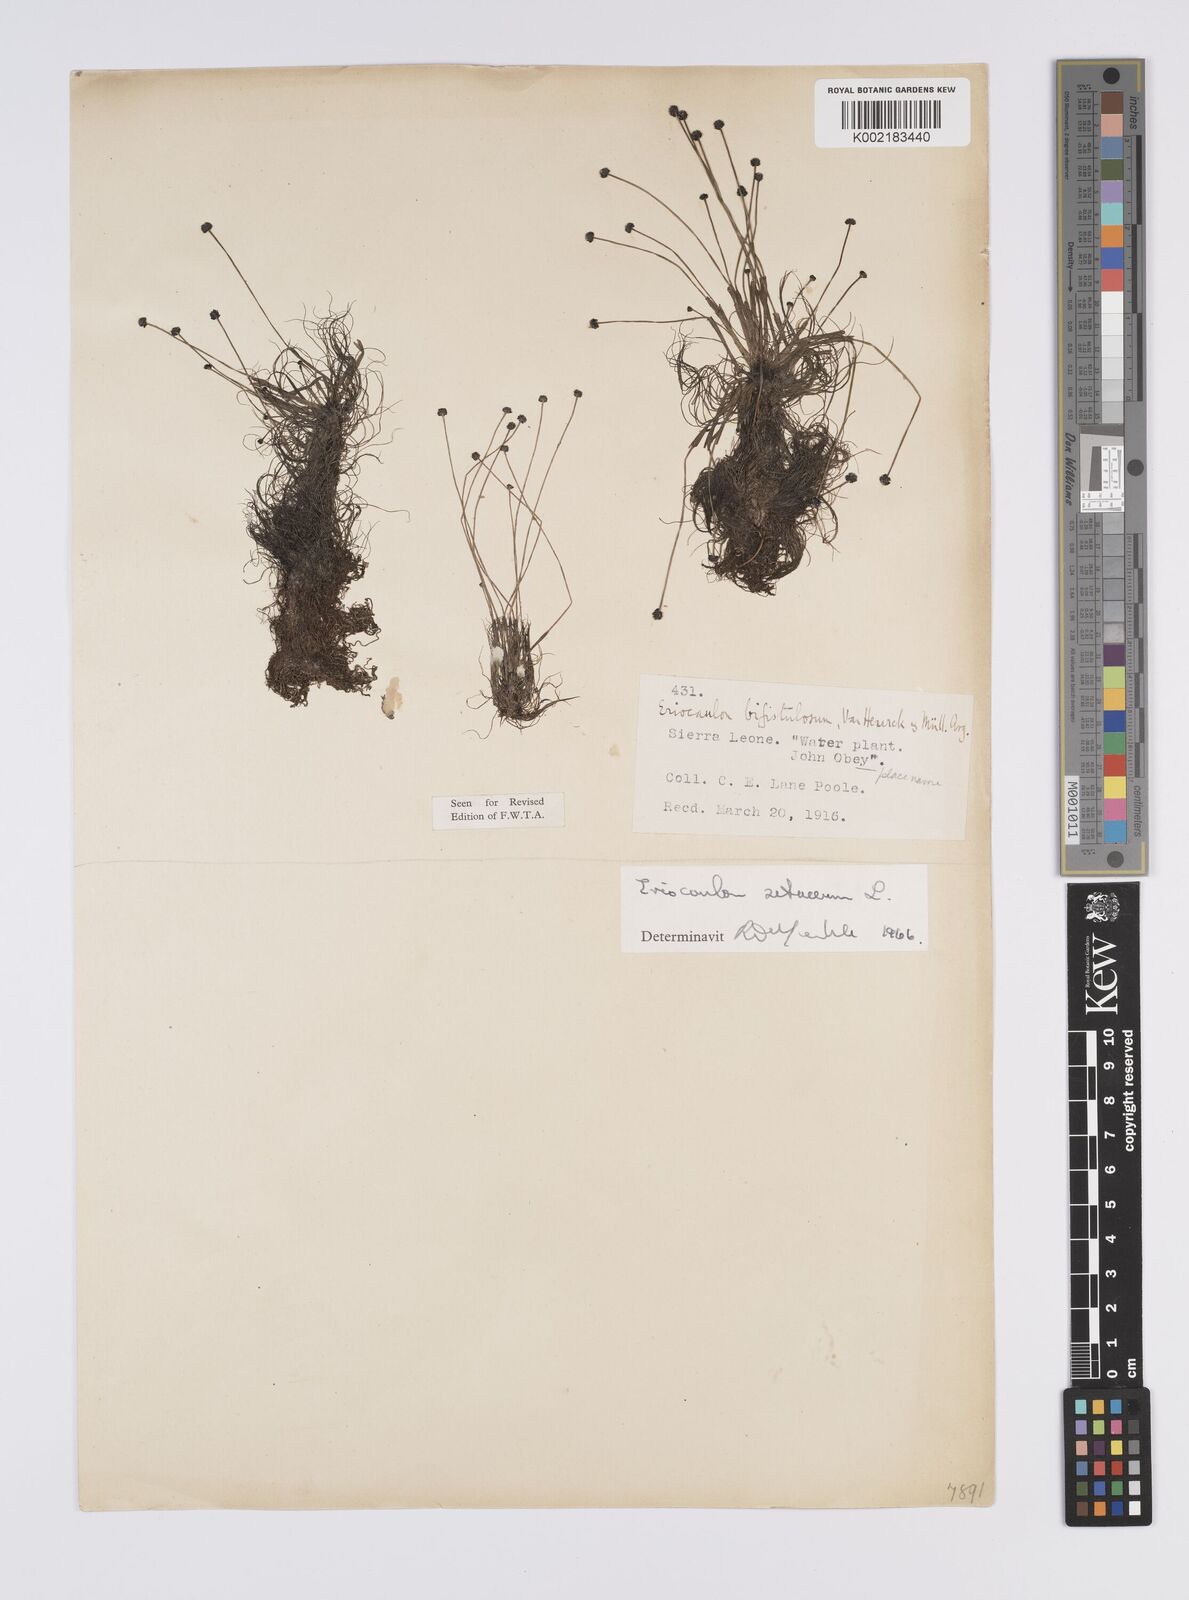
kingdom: Plantae
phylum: Tracheophyta
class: Liliopsida
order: Poales
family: Eriocaulaceae
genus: Eriocaulon
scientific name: Eriocaulon setaceum
